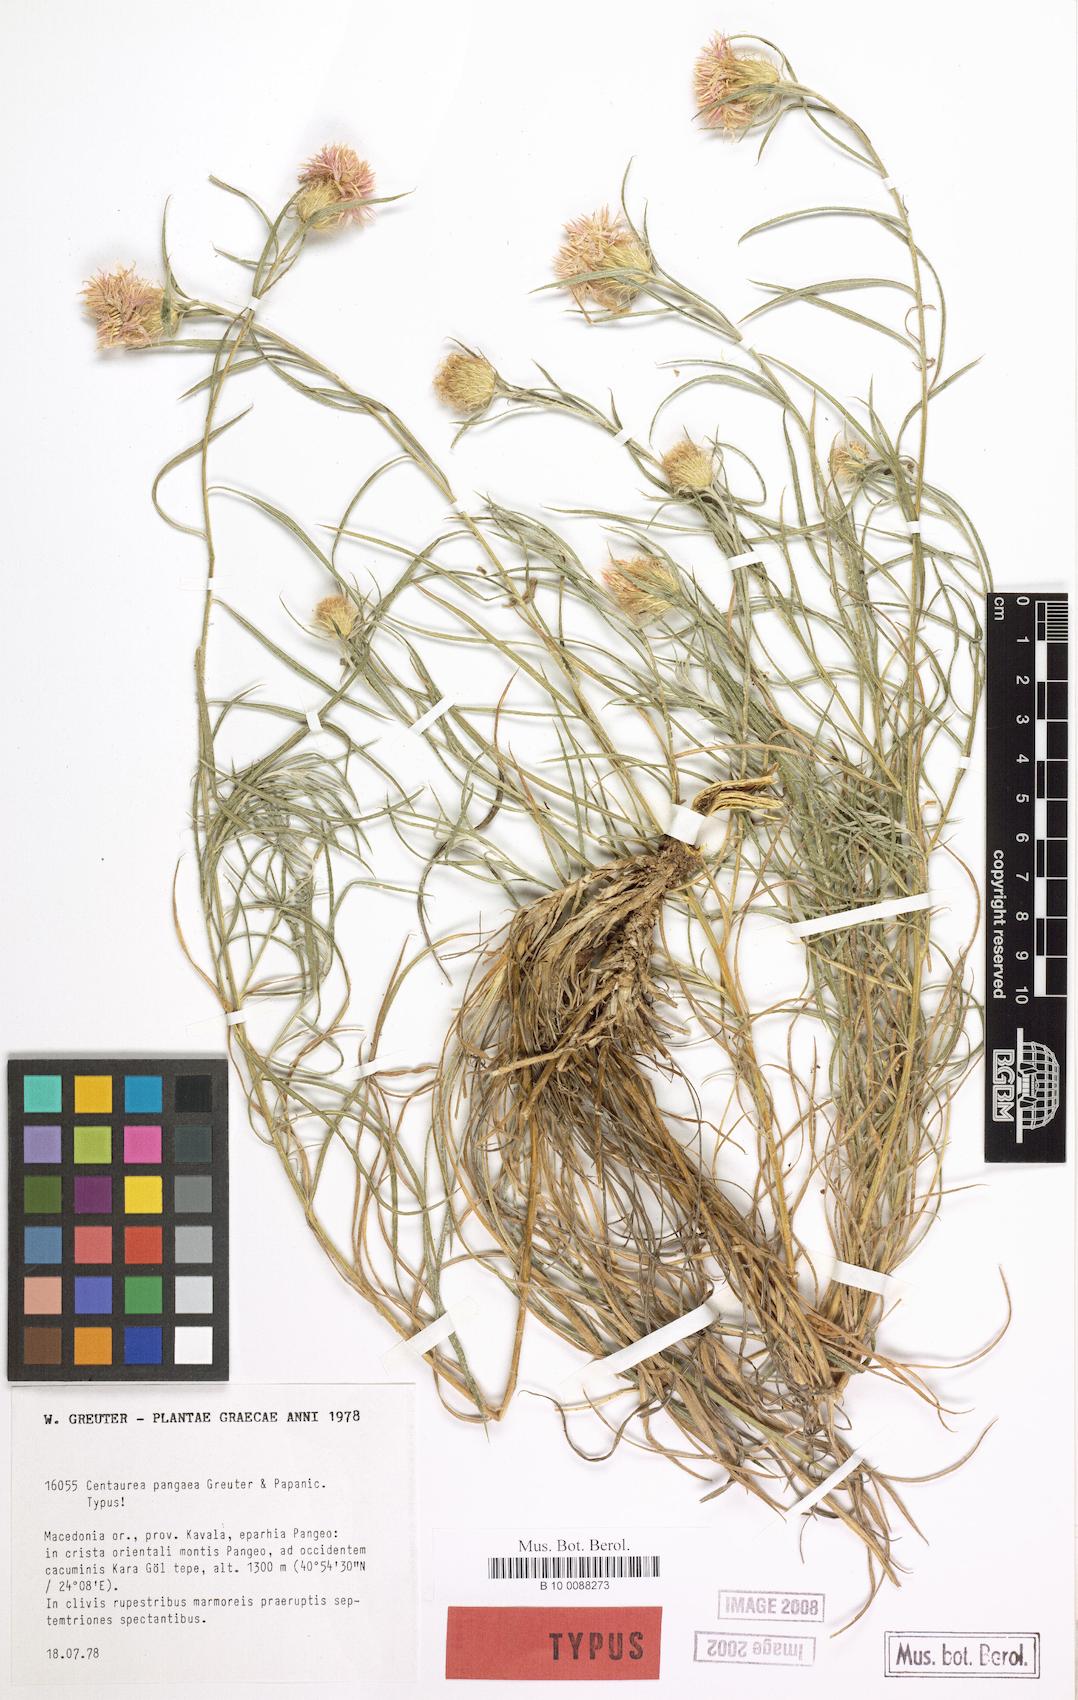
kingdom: Plantae
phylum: Tracheophyta
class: Magnoliopsida
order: Asterales
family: Asteraceae
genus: Centaurea
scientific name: Centaurea pangaea
